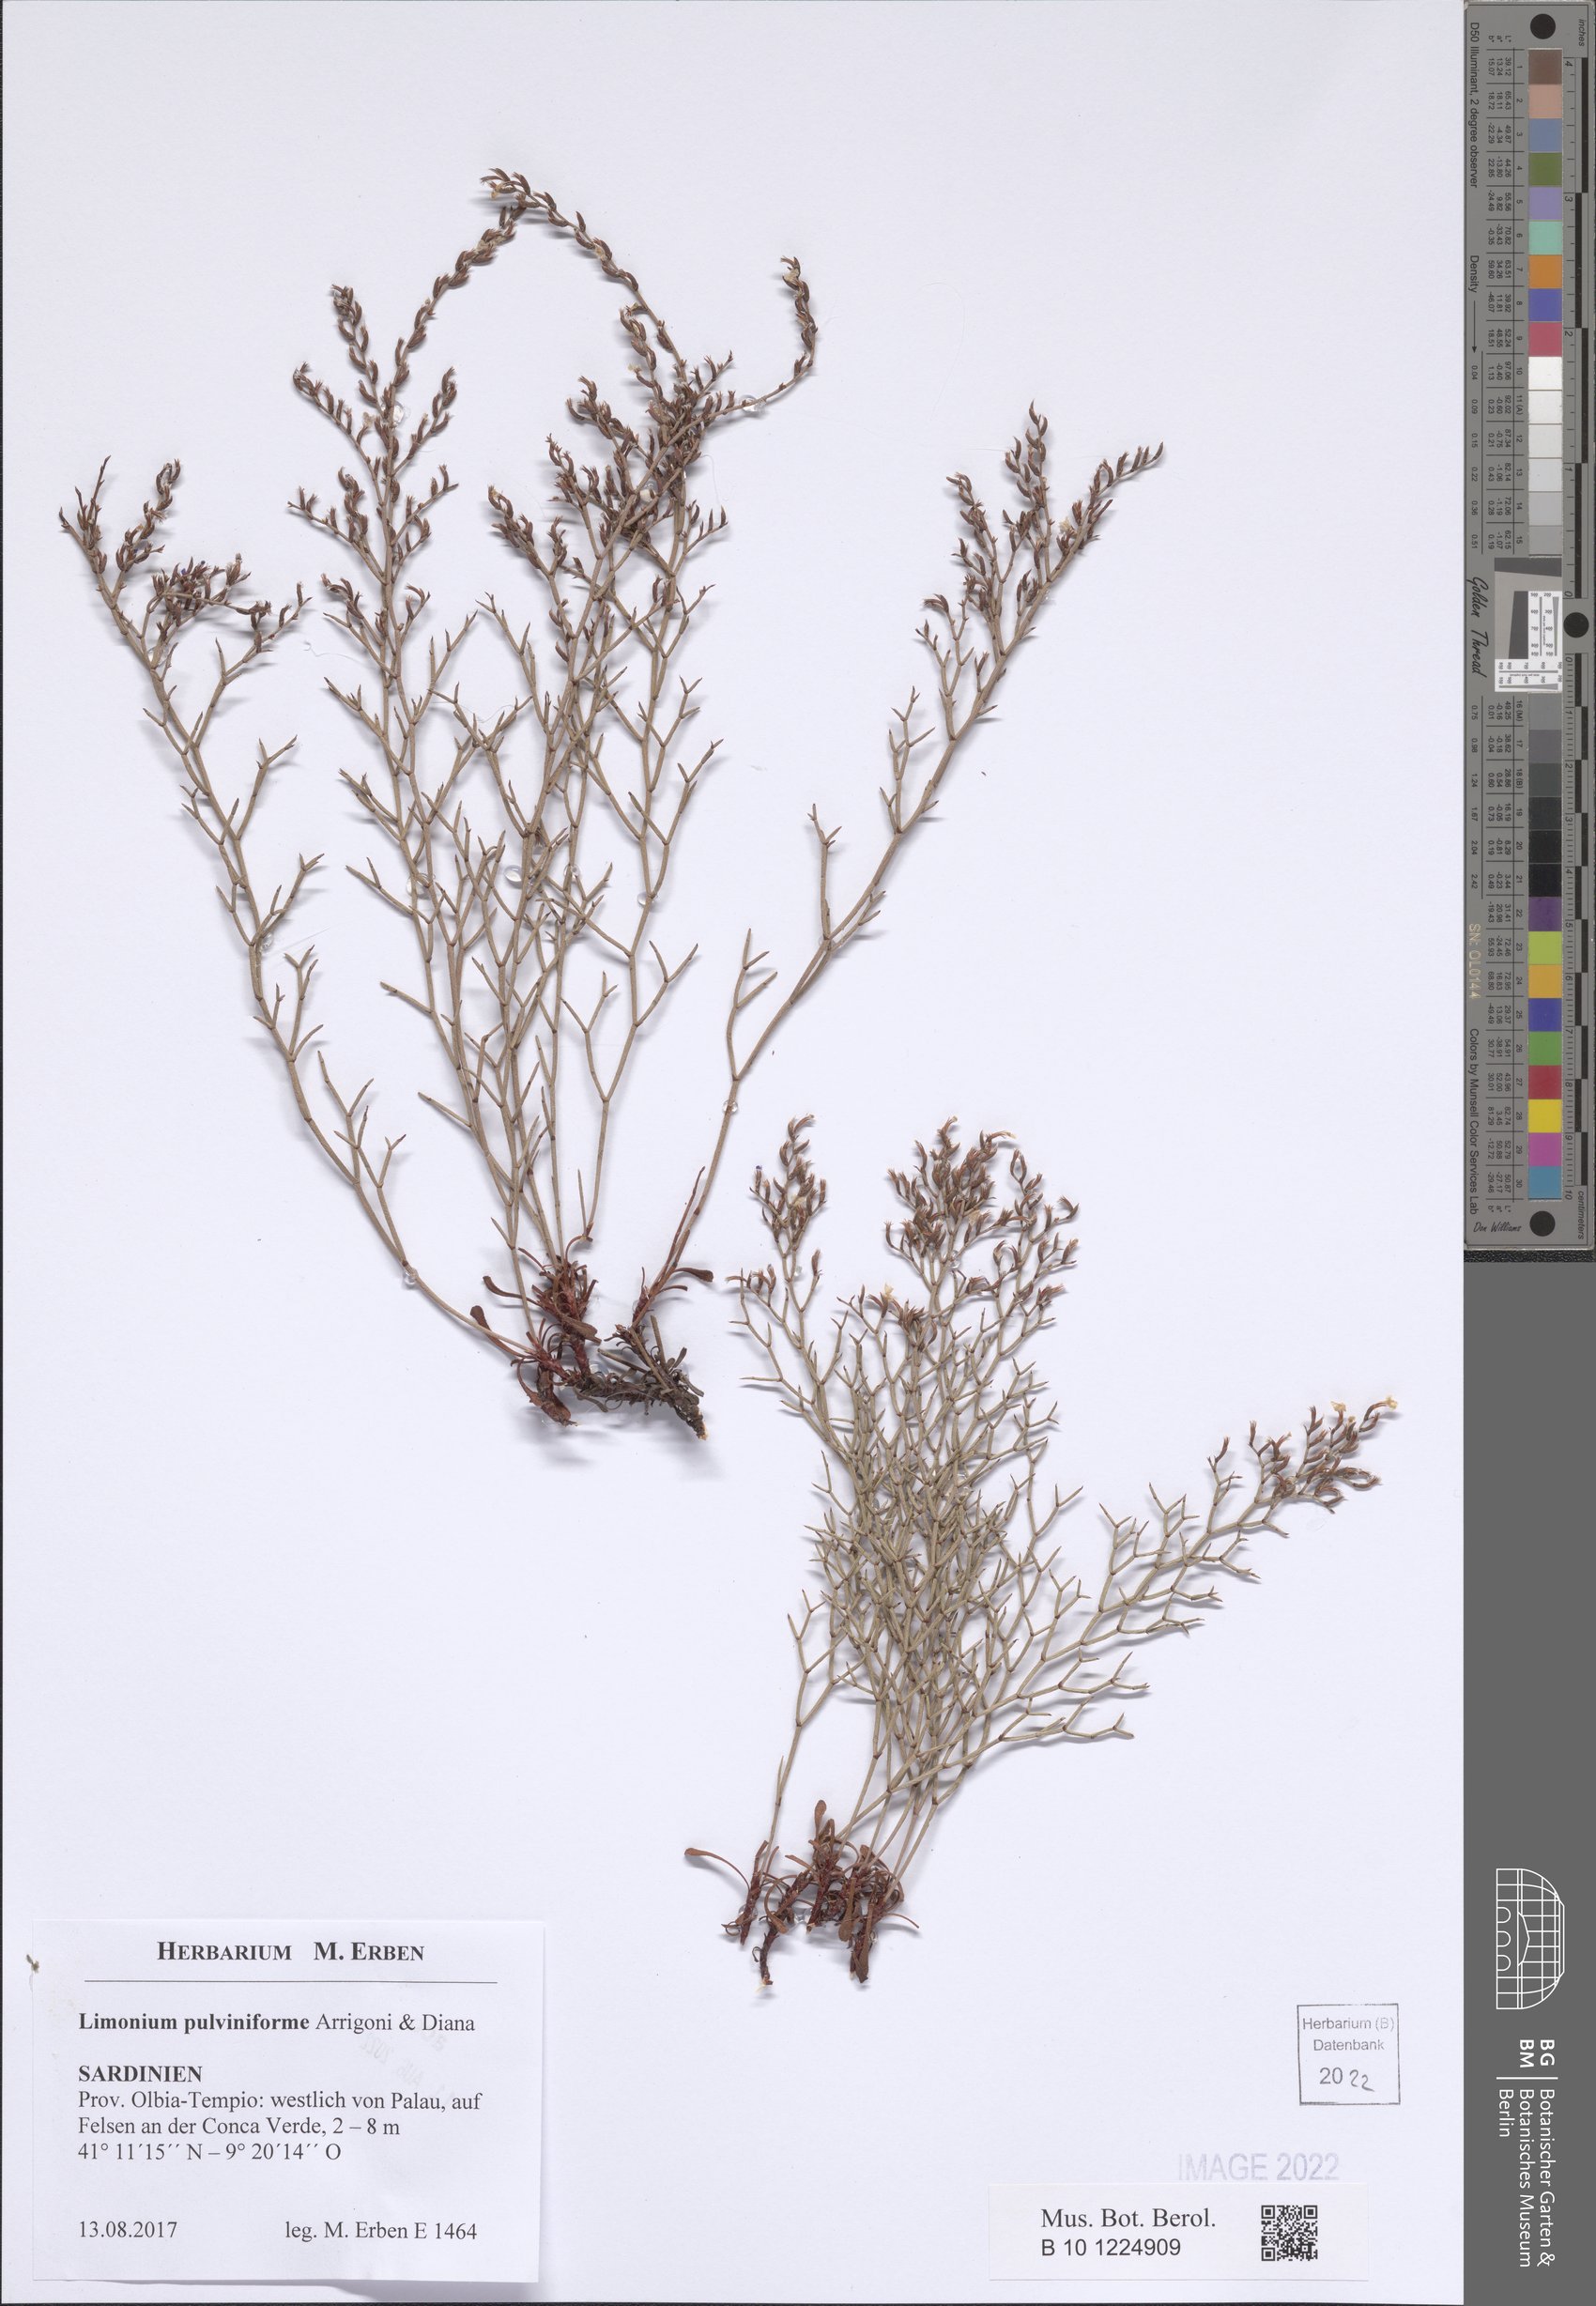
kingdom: Plantae
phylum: Tracheophyta
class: Magnoliopsida
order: Caryophyllales
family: Plumbaginaceae
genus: Limonium
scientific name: Limonium pulviniforme
